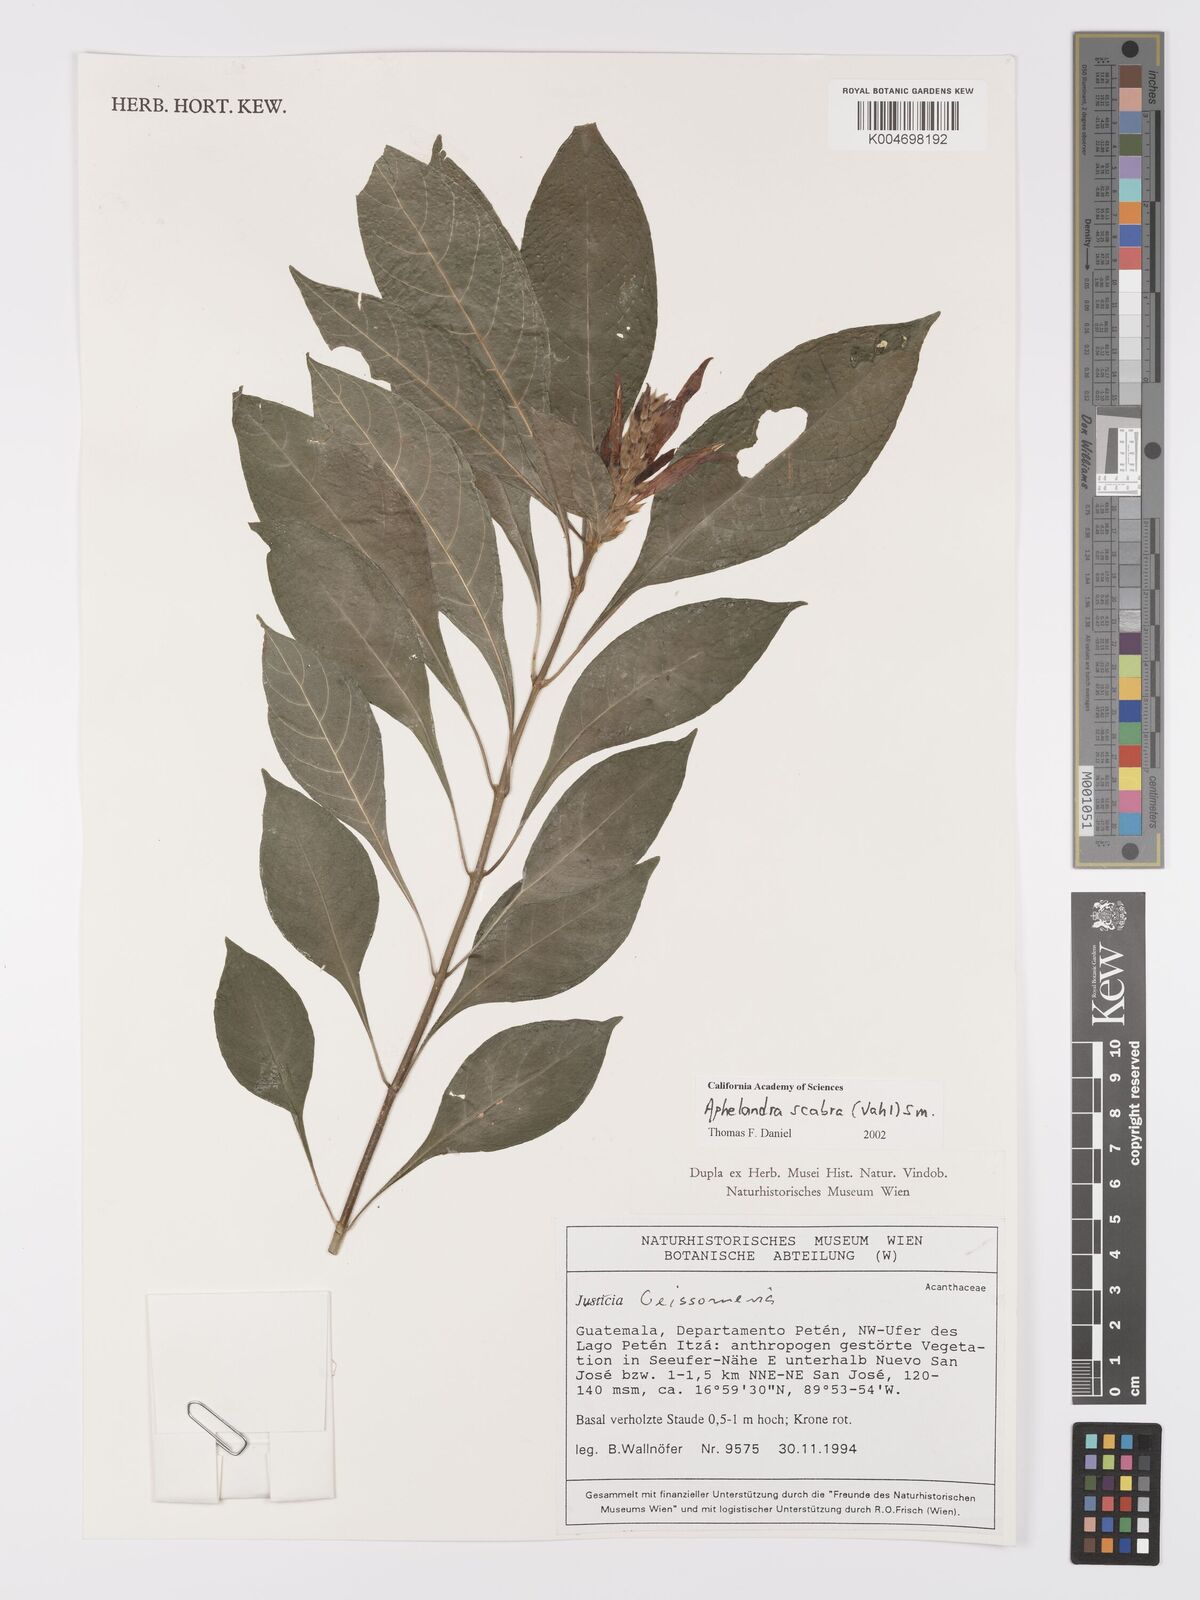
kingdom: Plantae
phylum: Tracheophyta
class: Magnoliopsida
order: Lamiales
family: Acanthaceae
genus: Aphelandra
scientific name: Aphelandra scabra
